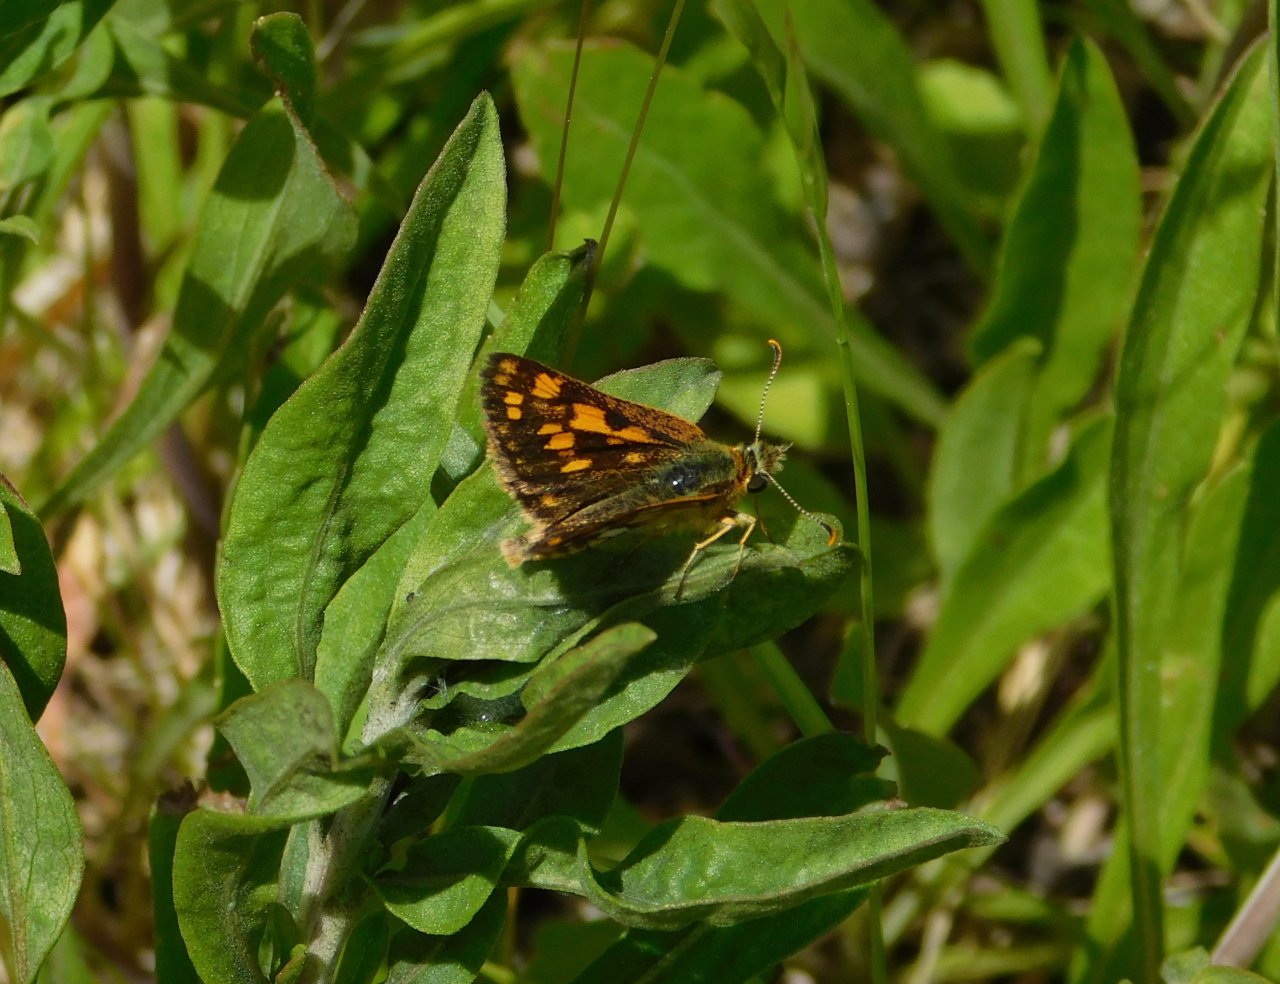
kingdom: Animalia
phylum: Arthropoda
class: Insecta
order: Lepidoptera
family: Hesperiidae
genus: Carterocephalus
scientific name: Carterocephalus palaemon
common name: Chequered Skipper
